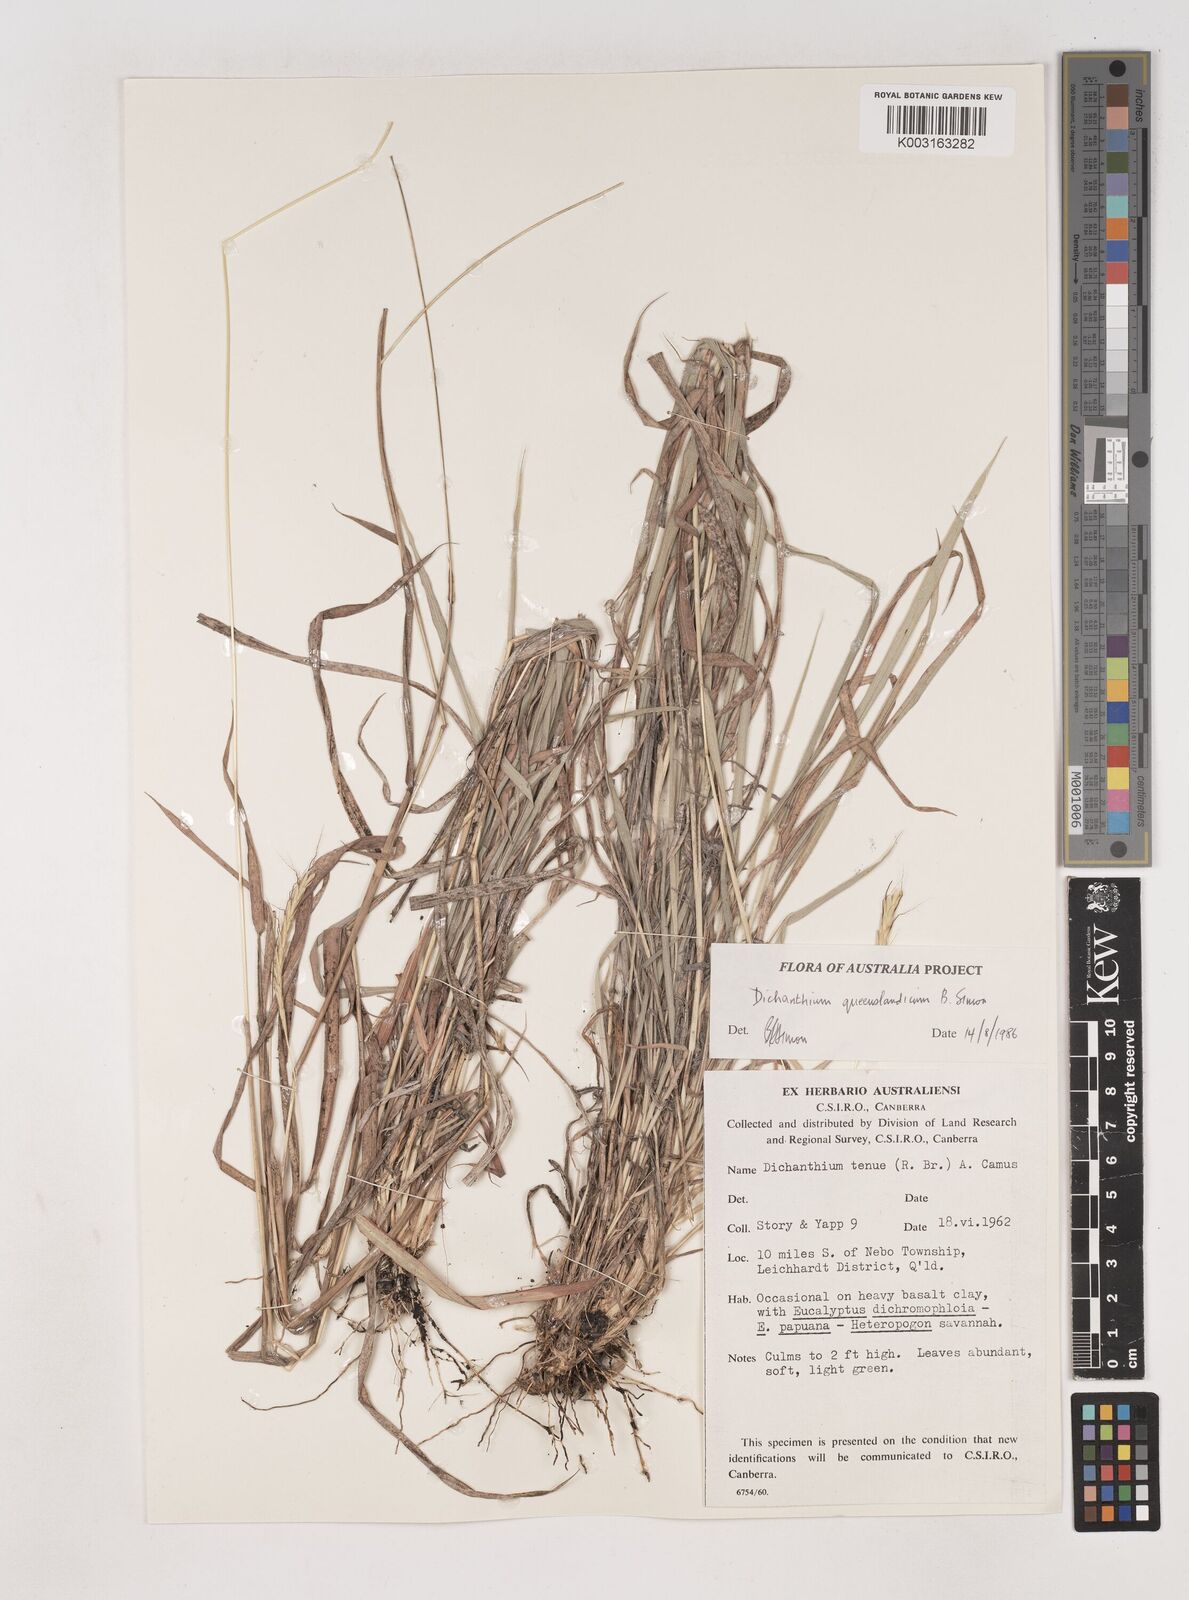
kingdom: Plantae
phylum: Tracheophyta
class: Liliopsida
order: Poales
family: Poaceae
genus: Dichanthium
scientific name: Dichanthium queenslandicum
